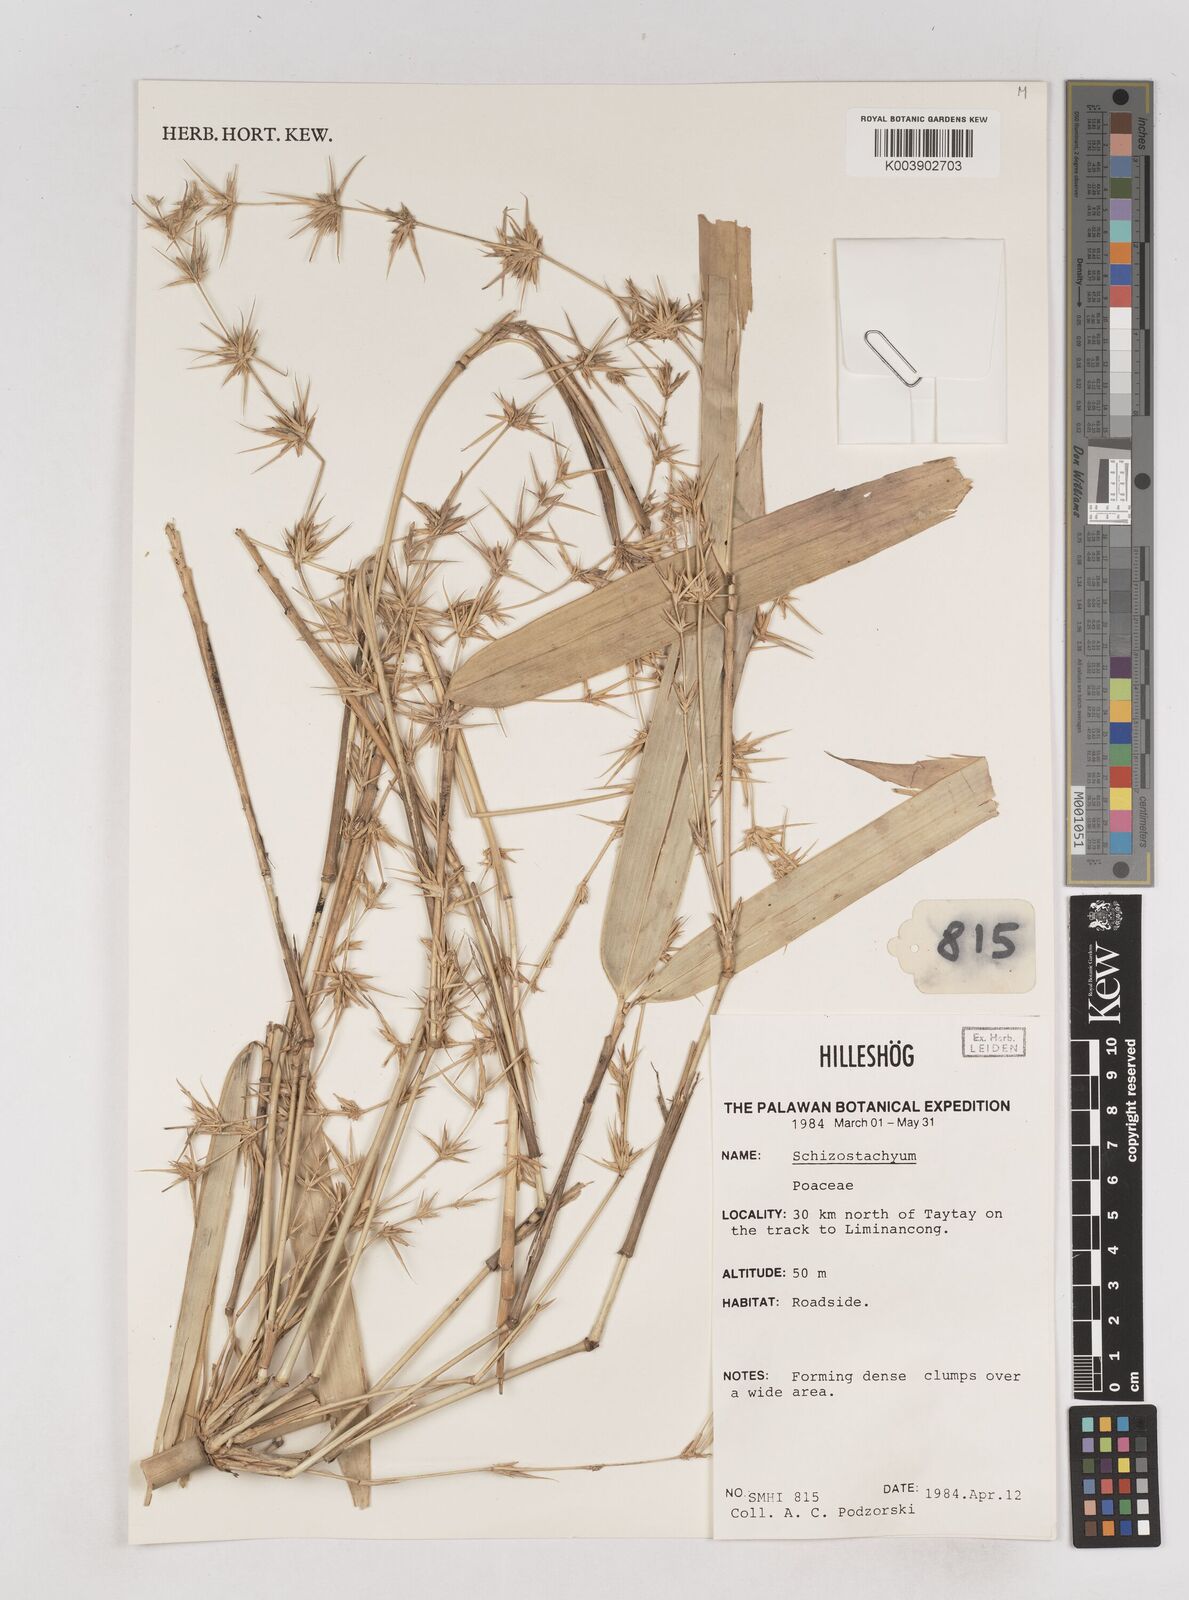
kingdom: Plantae
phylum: Tracheophyta
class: Liliopsida
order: Poales
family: Poaceae
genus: Schizostachyum
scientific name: Schizostachyum
